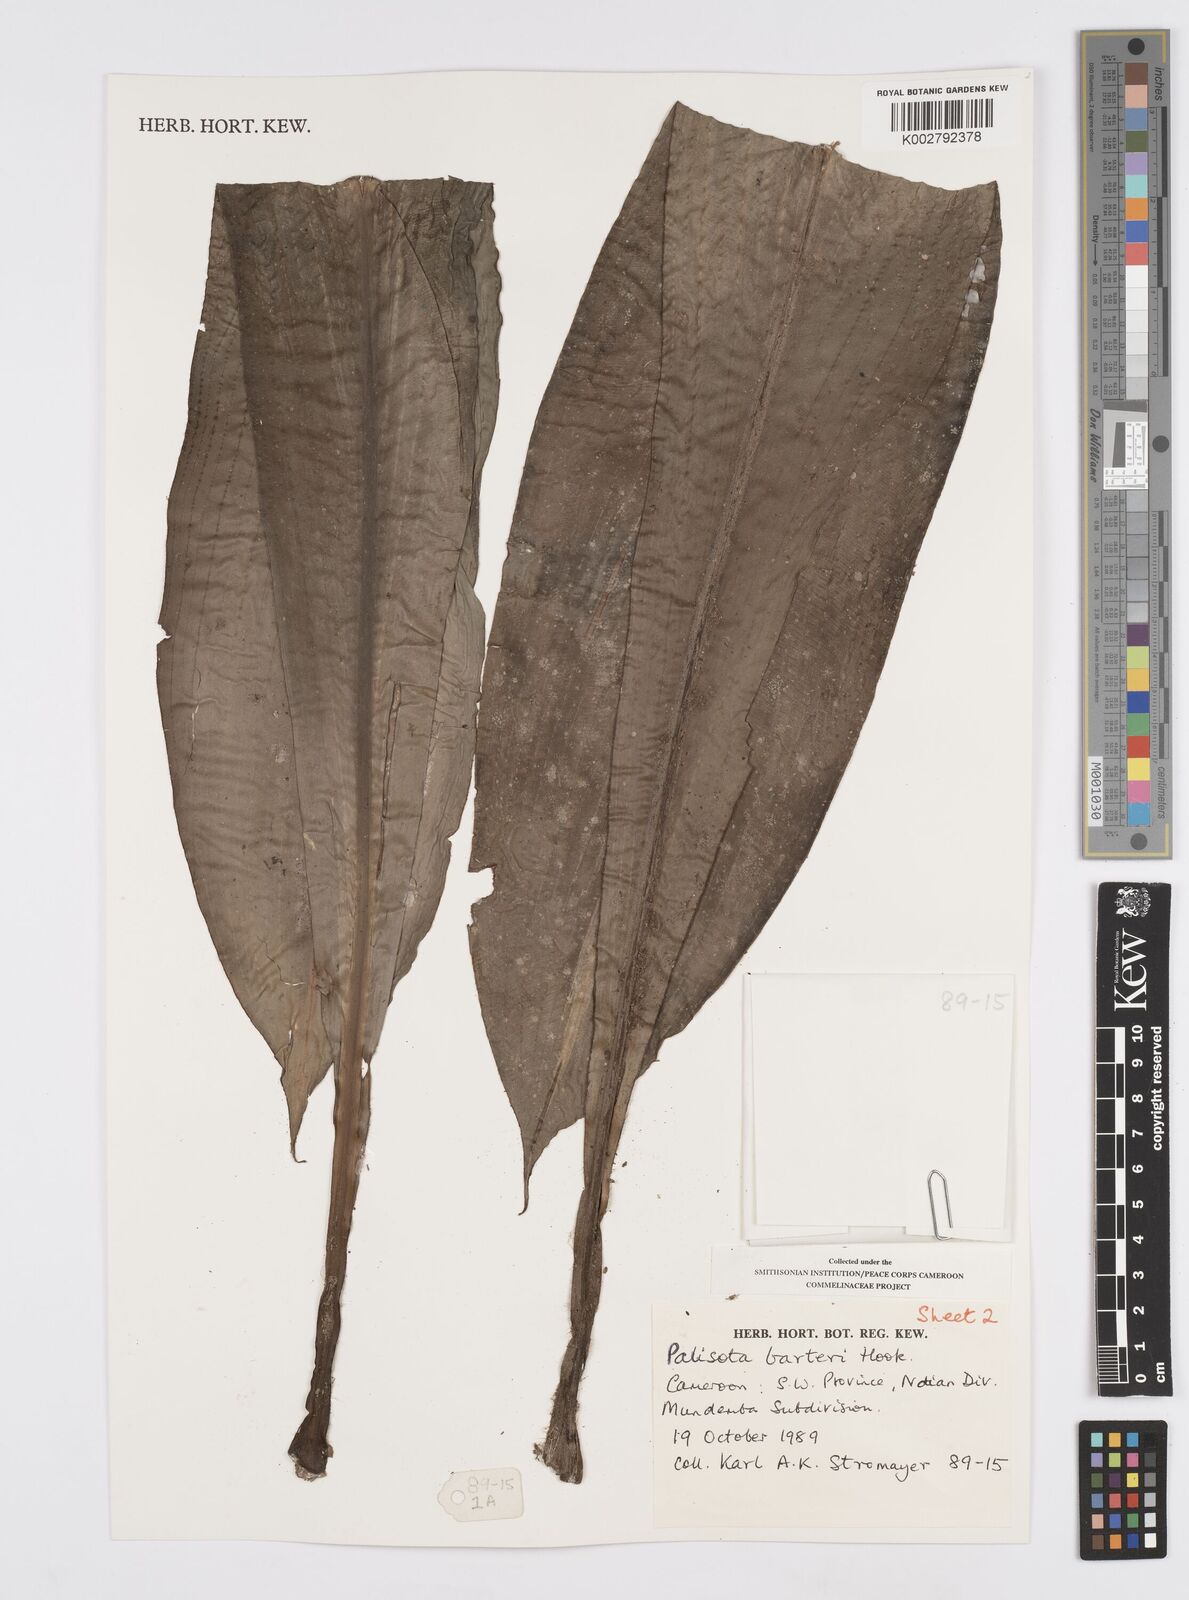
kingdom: Plantae
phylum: Tracheophyta
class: Liliopsida
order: Commelinales
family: Commelinaceae
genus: Palisota
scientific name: Palisota barteri
